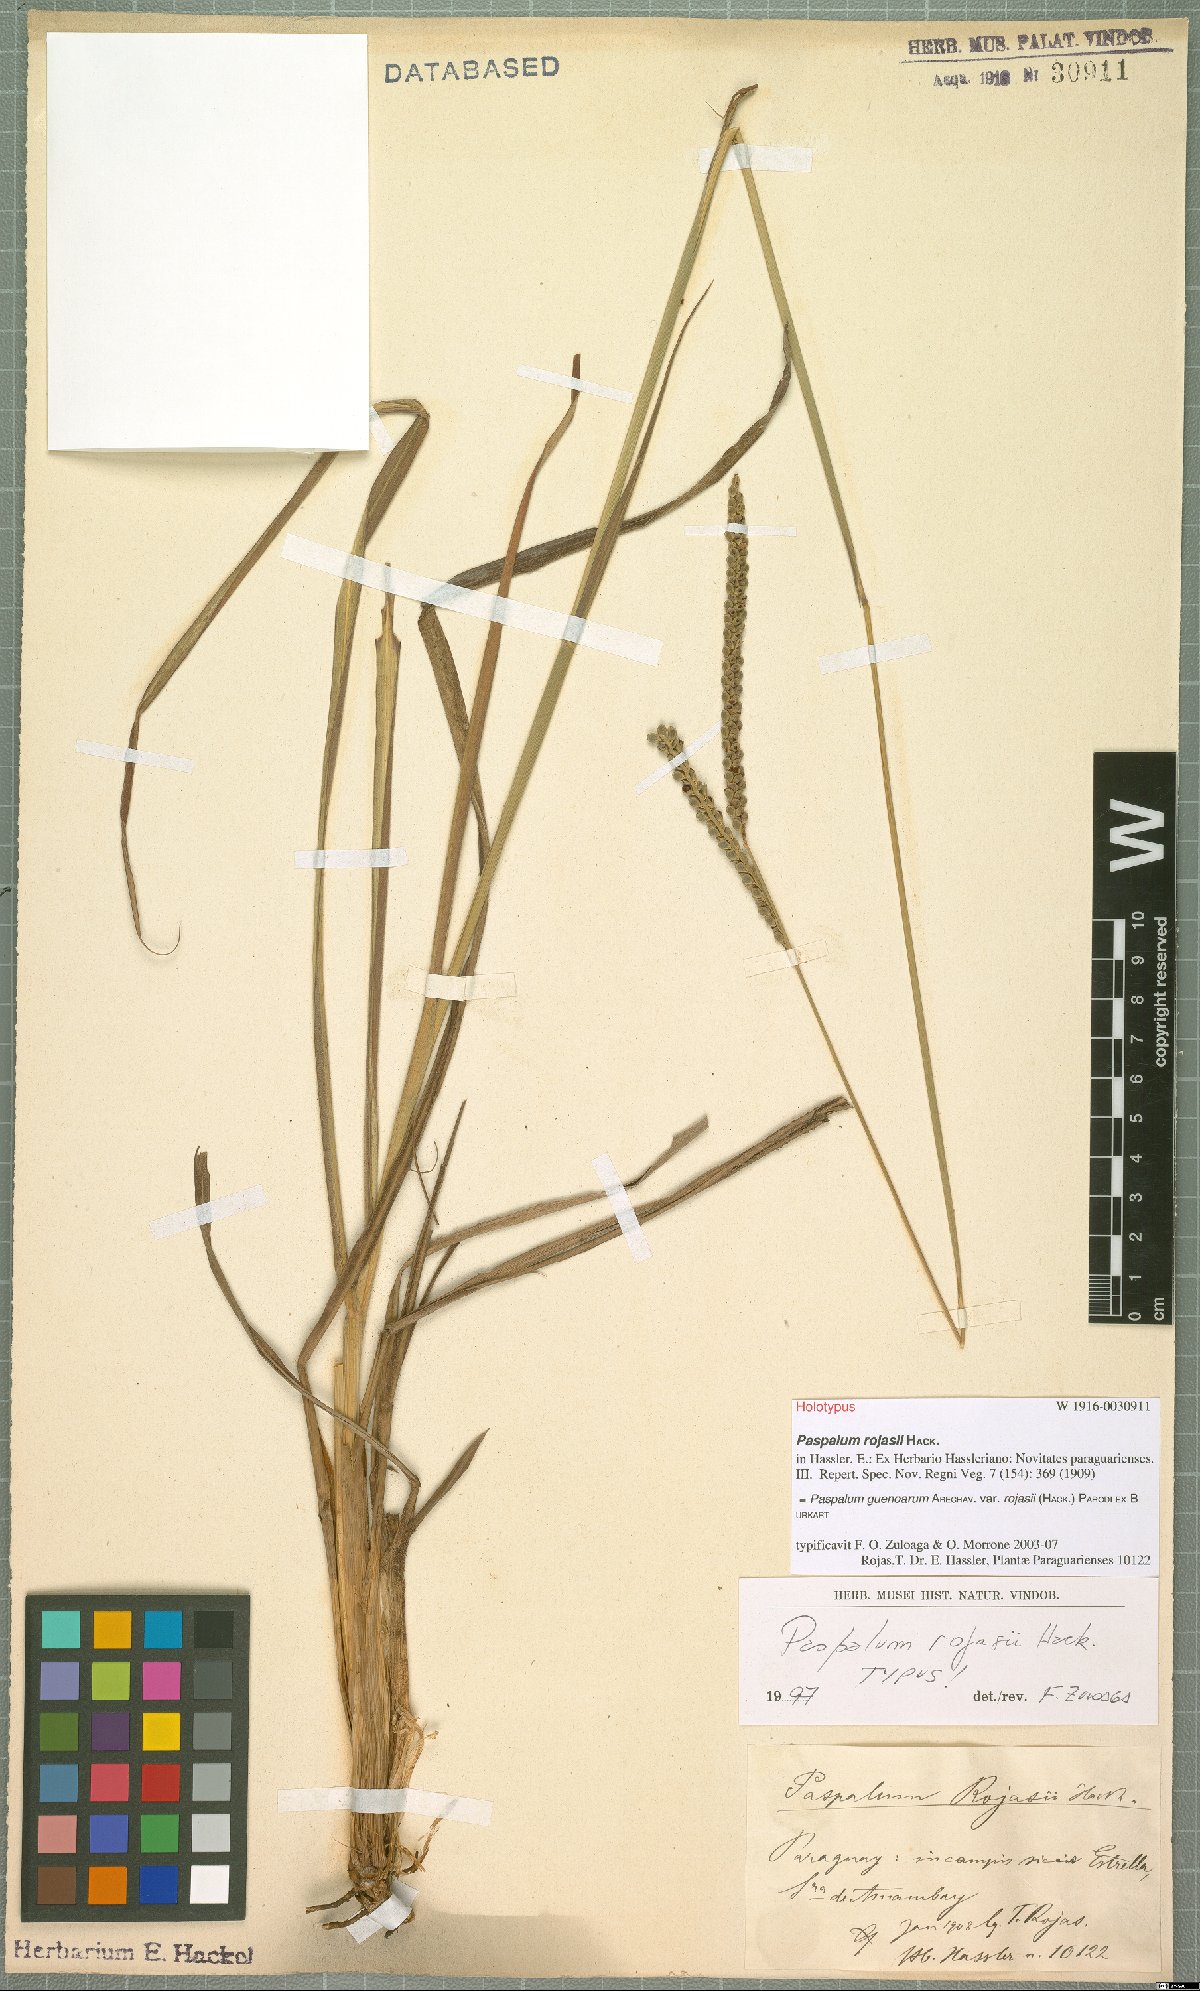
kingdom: Plantae
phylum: Tracheophyta
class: Liliopsida
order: Poales
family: Poaceae
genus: Paspalum
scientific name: Paspalum guenoarum
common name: Wintergreen paspalum
